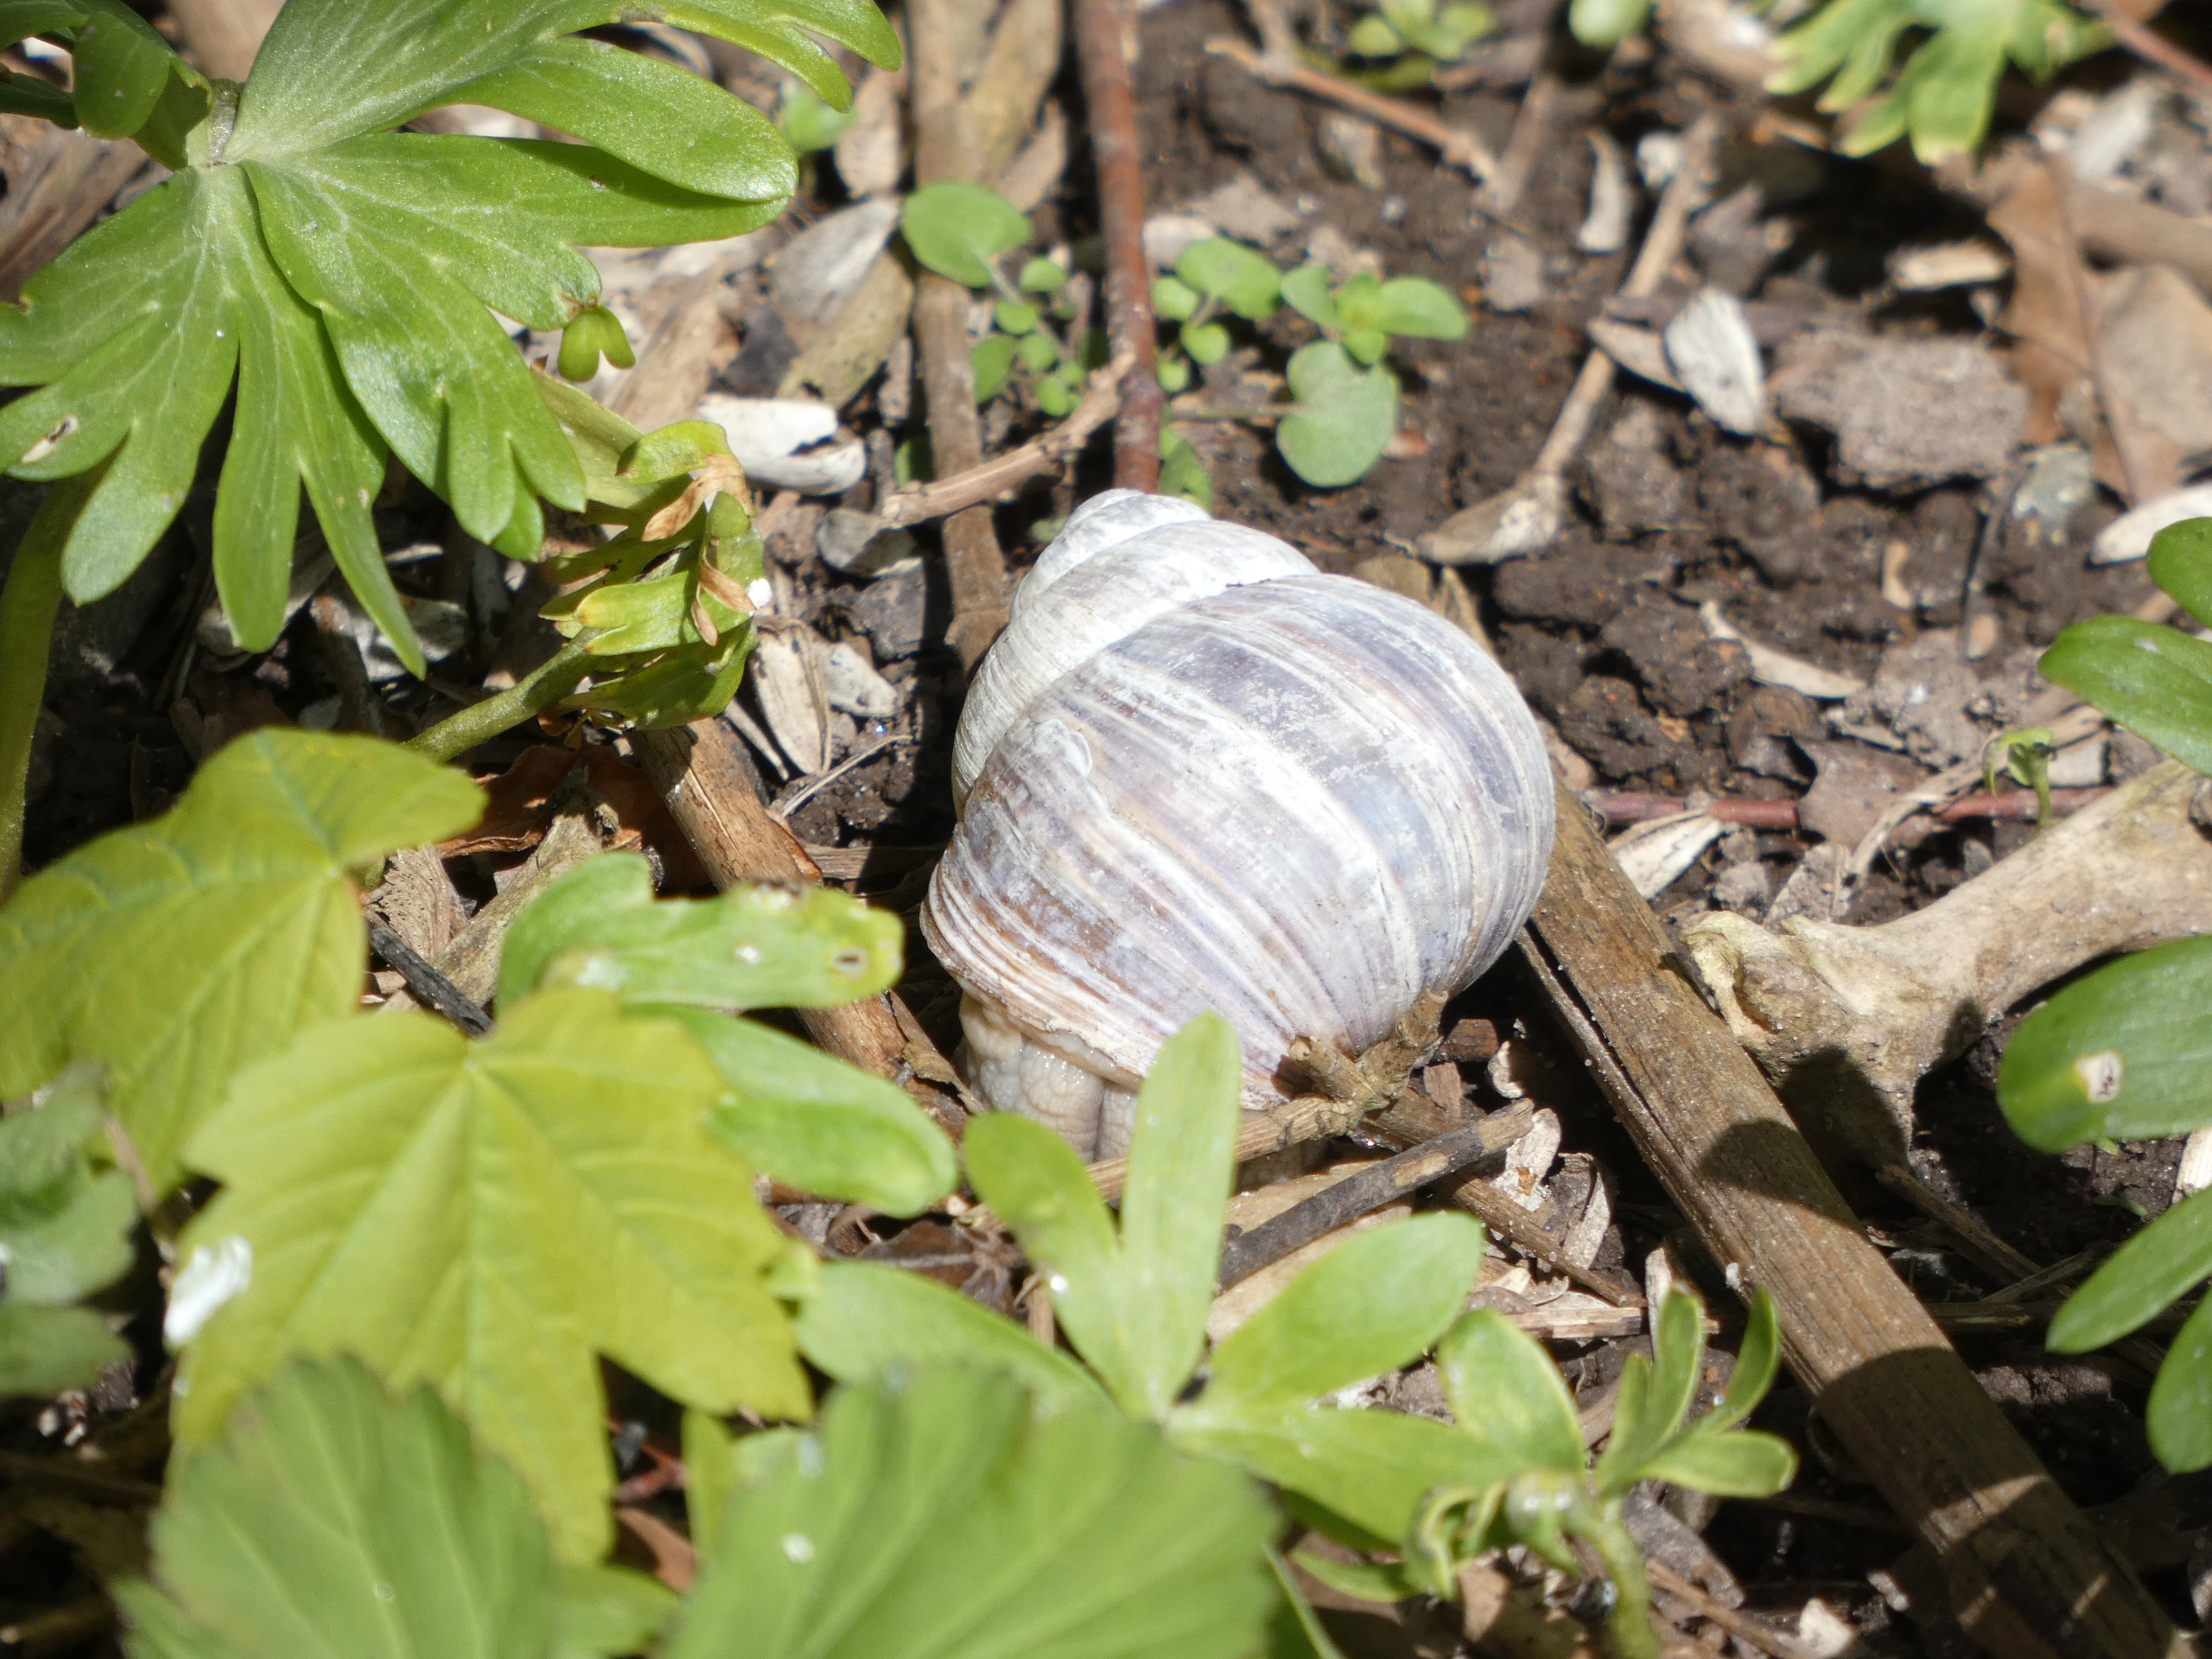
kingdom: Animalia
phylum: Mollusca
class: Gastropoda
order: Stylommatophora
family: Helicidae
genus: Helix
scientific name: Helix pomatia
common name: Vinbjergsnegl
